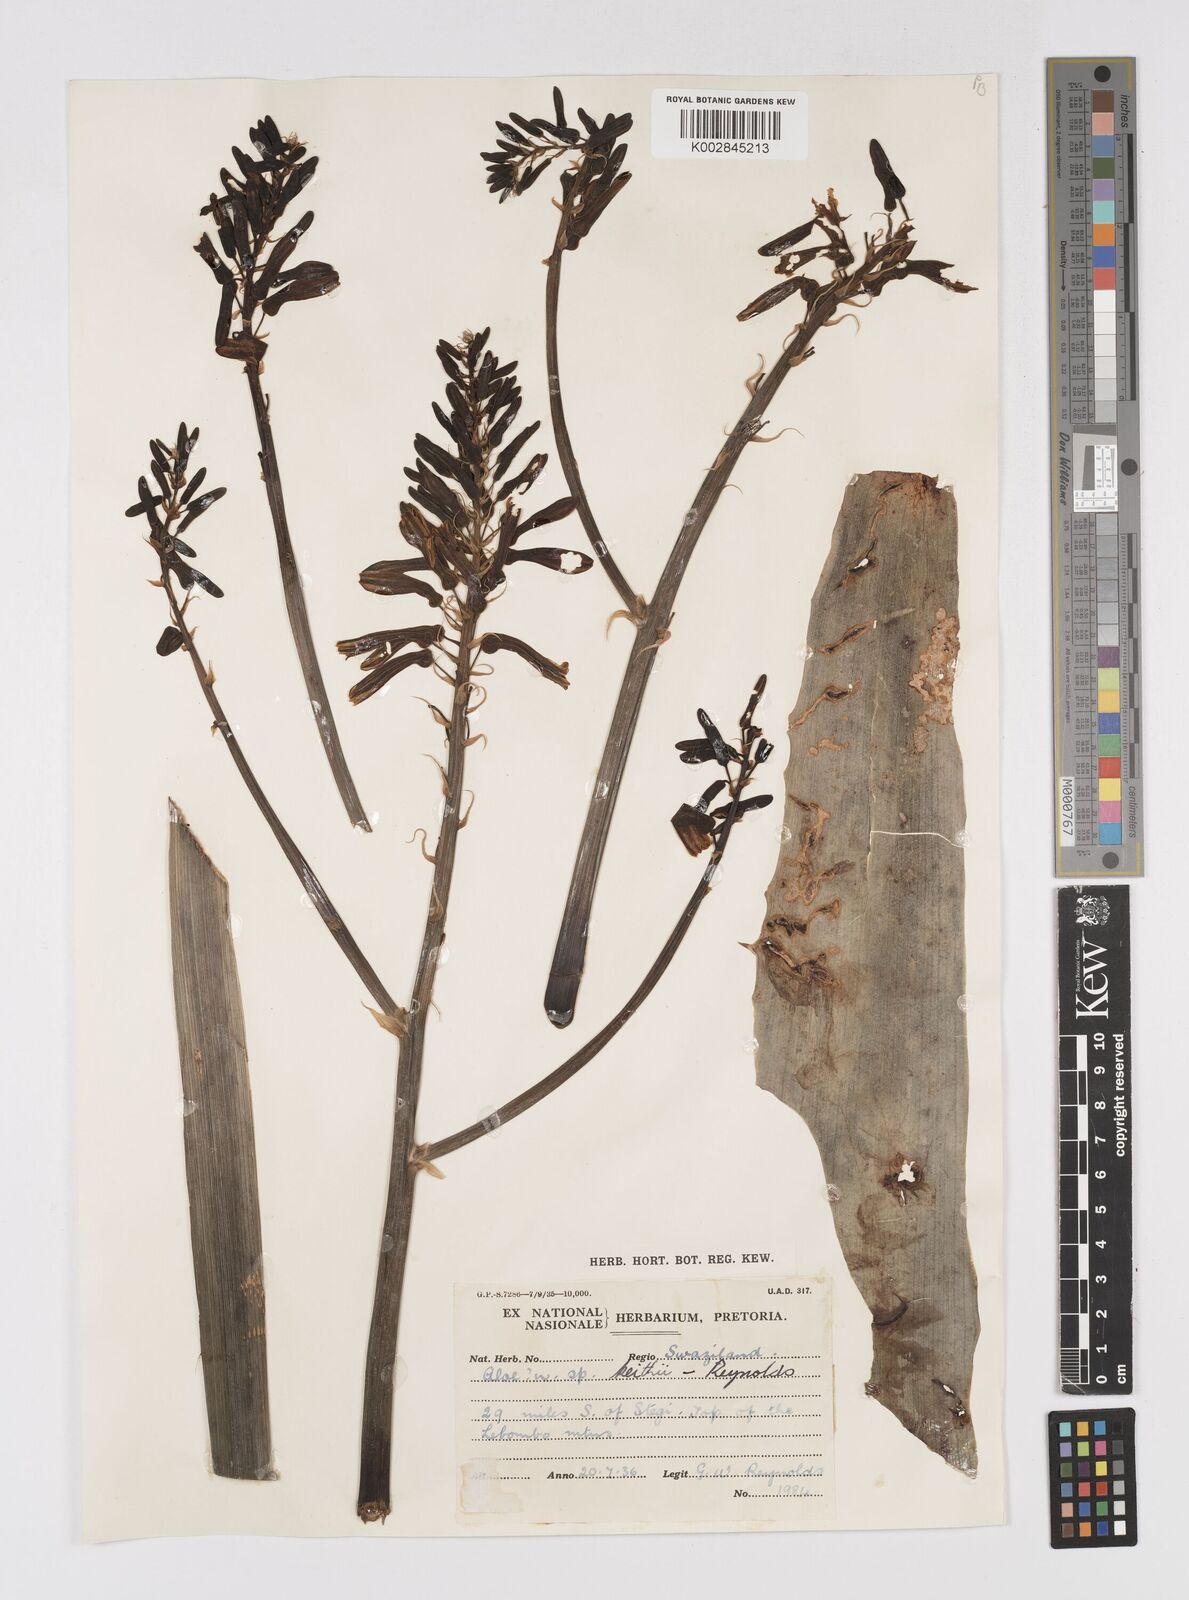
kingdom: Plantae
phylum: Tracheophyta
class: Liliopsida
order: Asparagales
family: Asphodelaceae
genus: Aloe
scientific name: Aloe parvibracteata
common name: Lowveld spotted aloe
